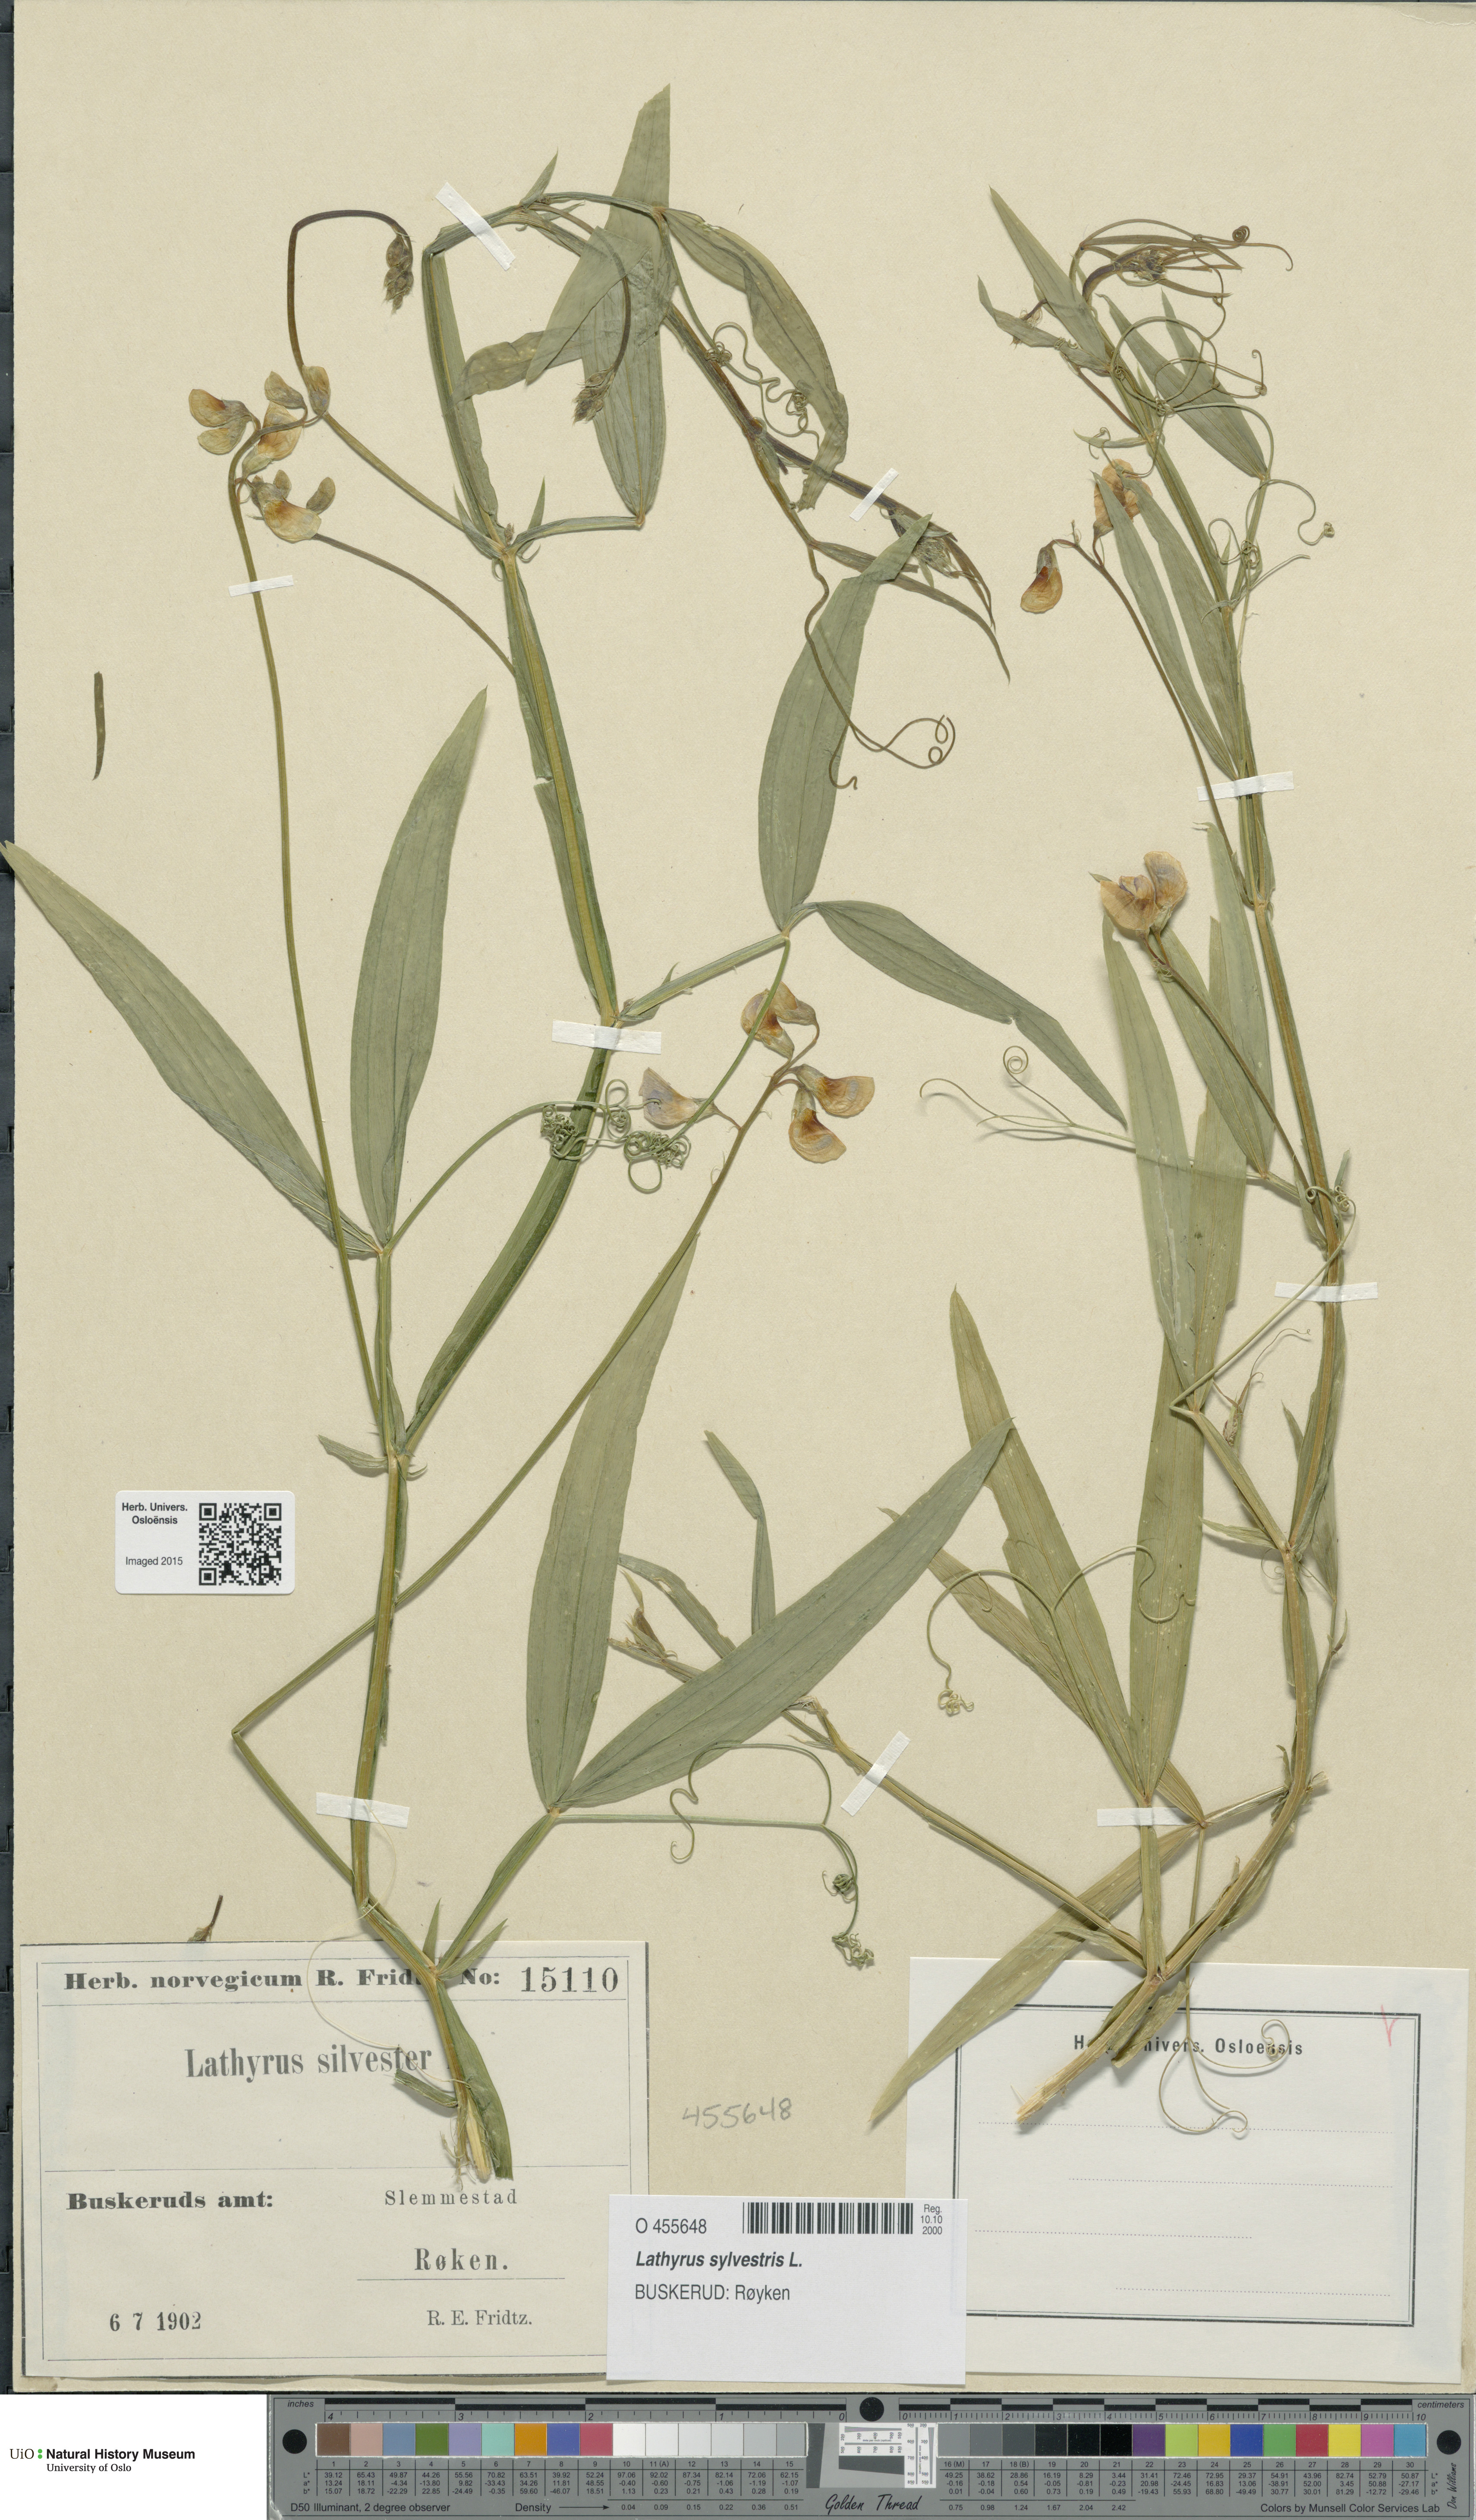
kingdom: Plantae
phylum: Tracheophyta
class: Magnoliopsida
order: Fabales
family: Fabaceae
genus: Lathyrus
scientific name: Lathyrus sylvestris
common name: Flat pea
